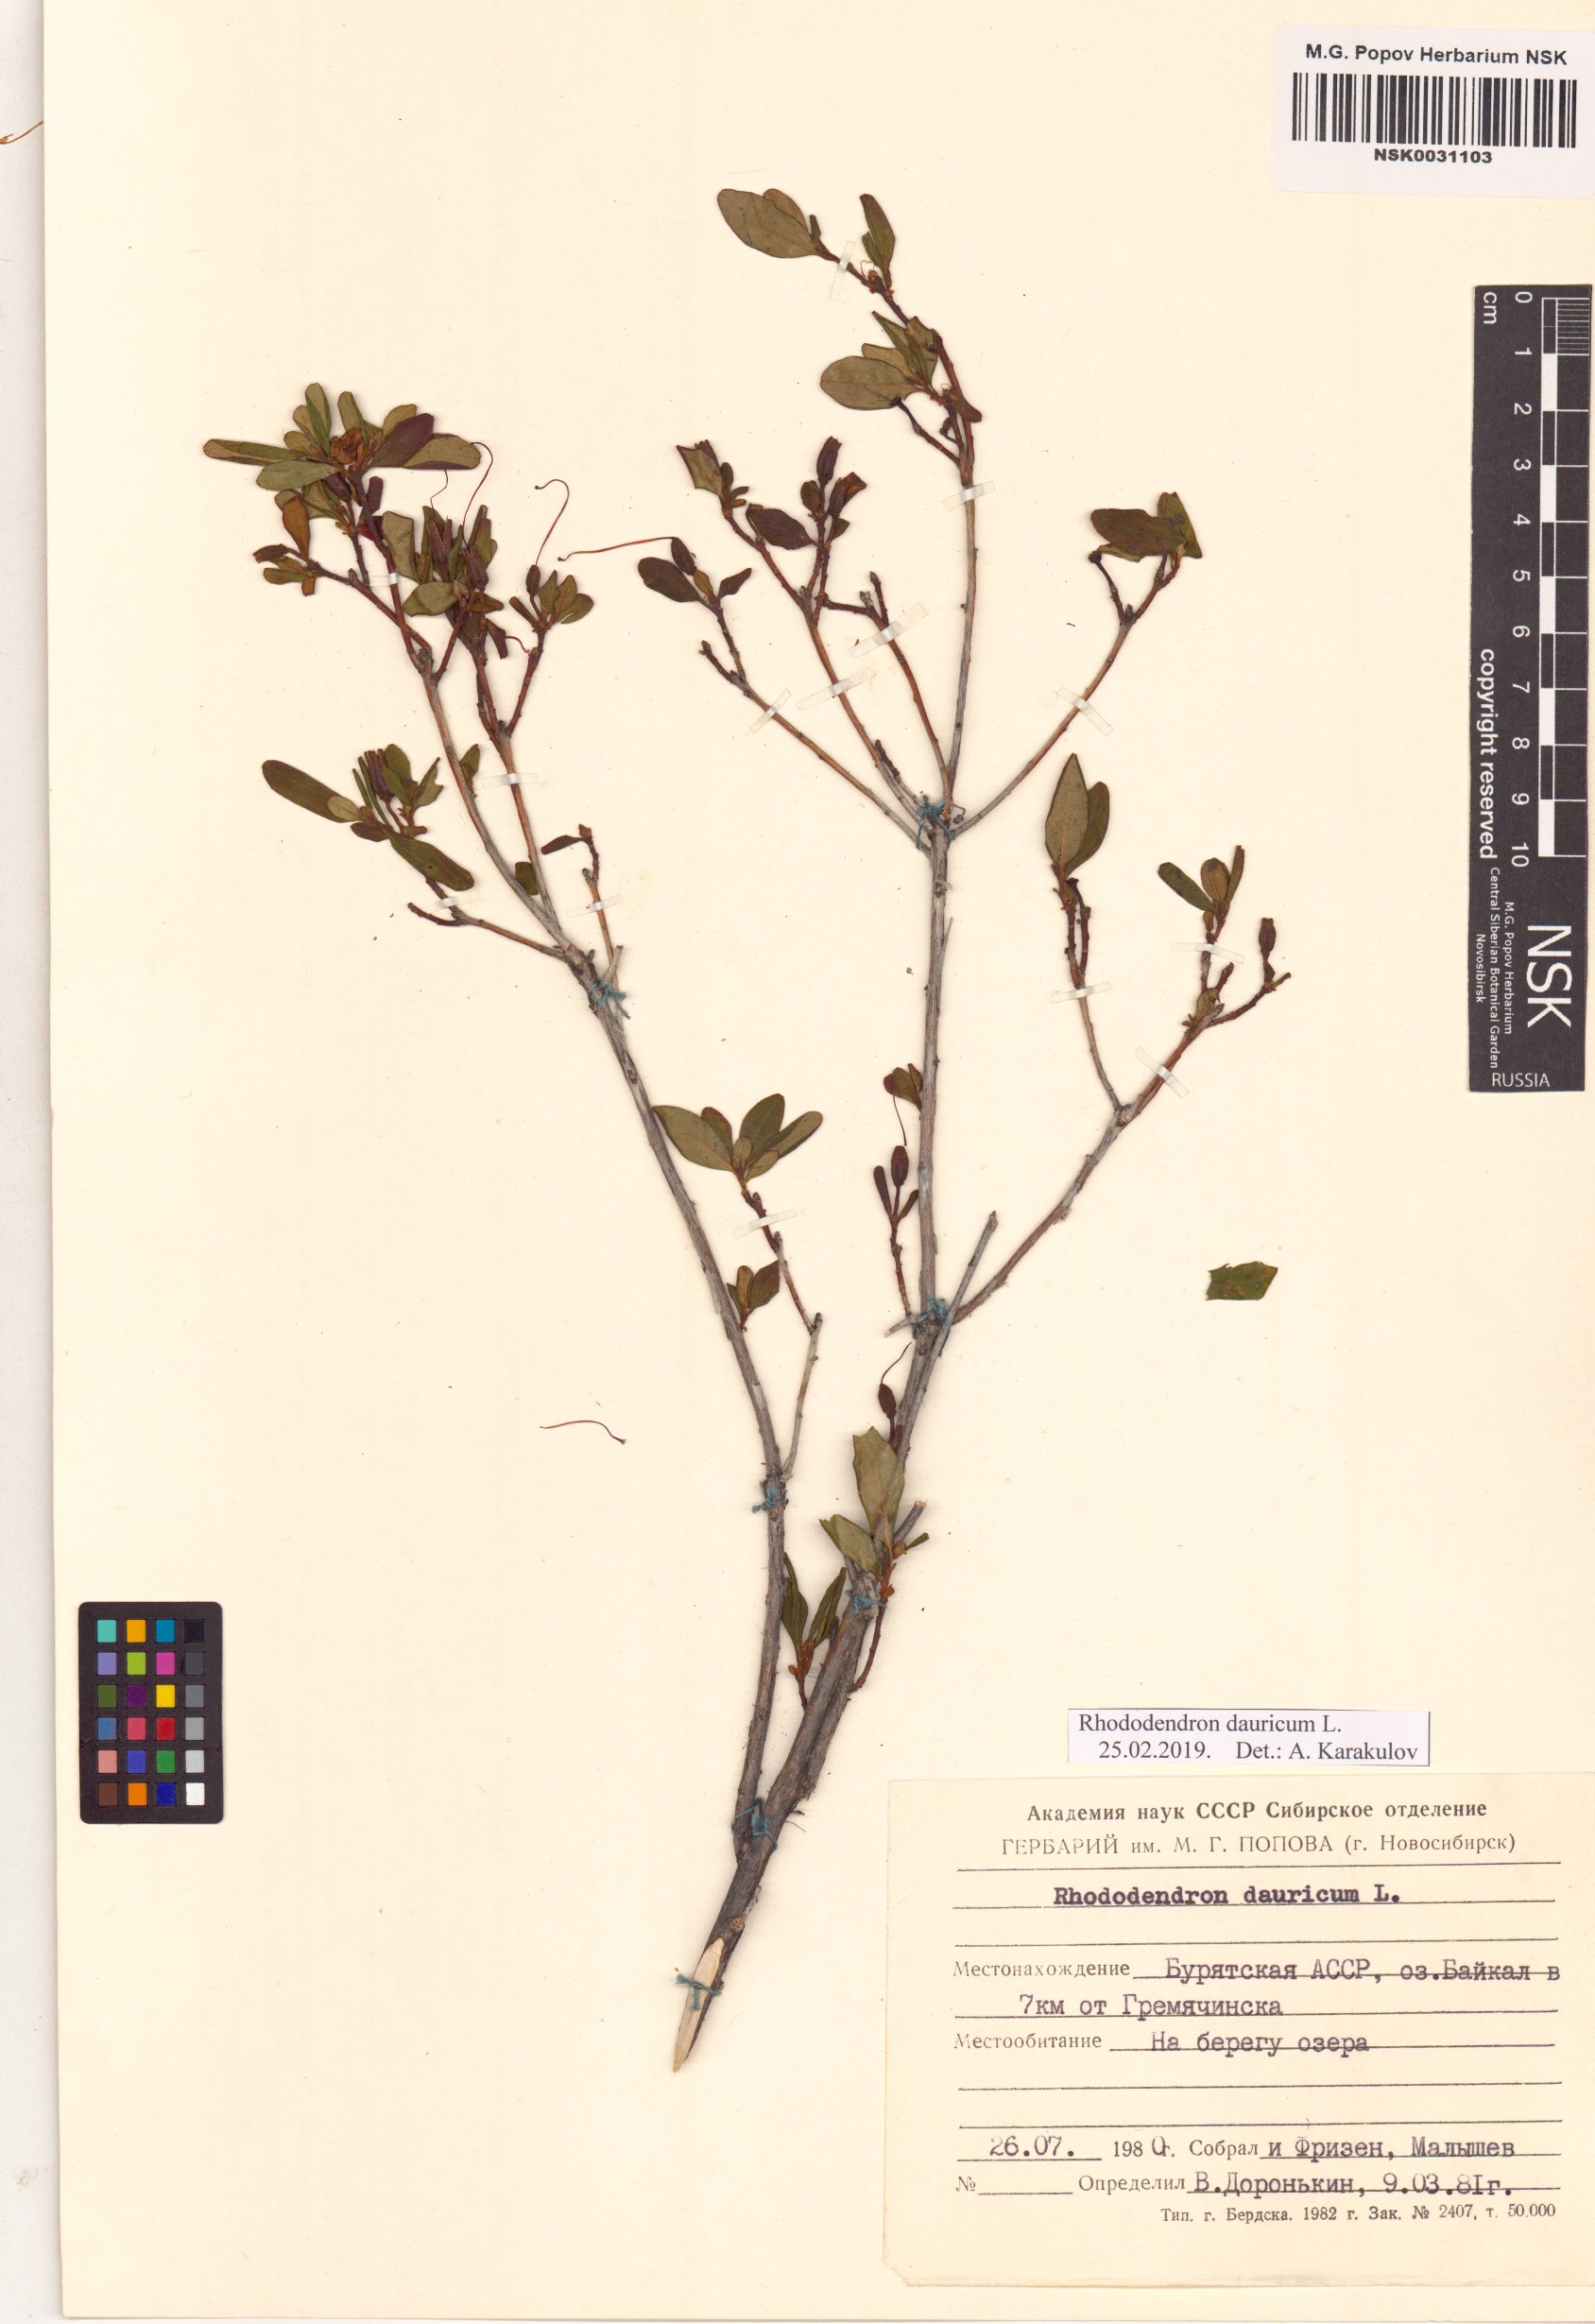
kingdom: Plantae
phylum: Tracheophyta
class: Magnoliopsida
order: Ericales
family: Ericaceae
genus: Rhododendron
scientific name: Rhododendron dauricum
